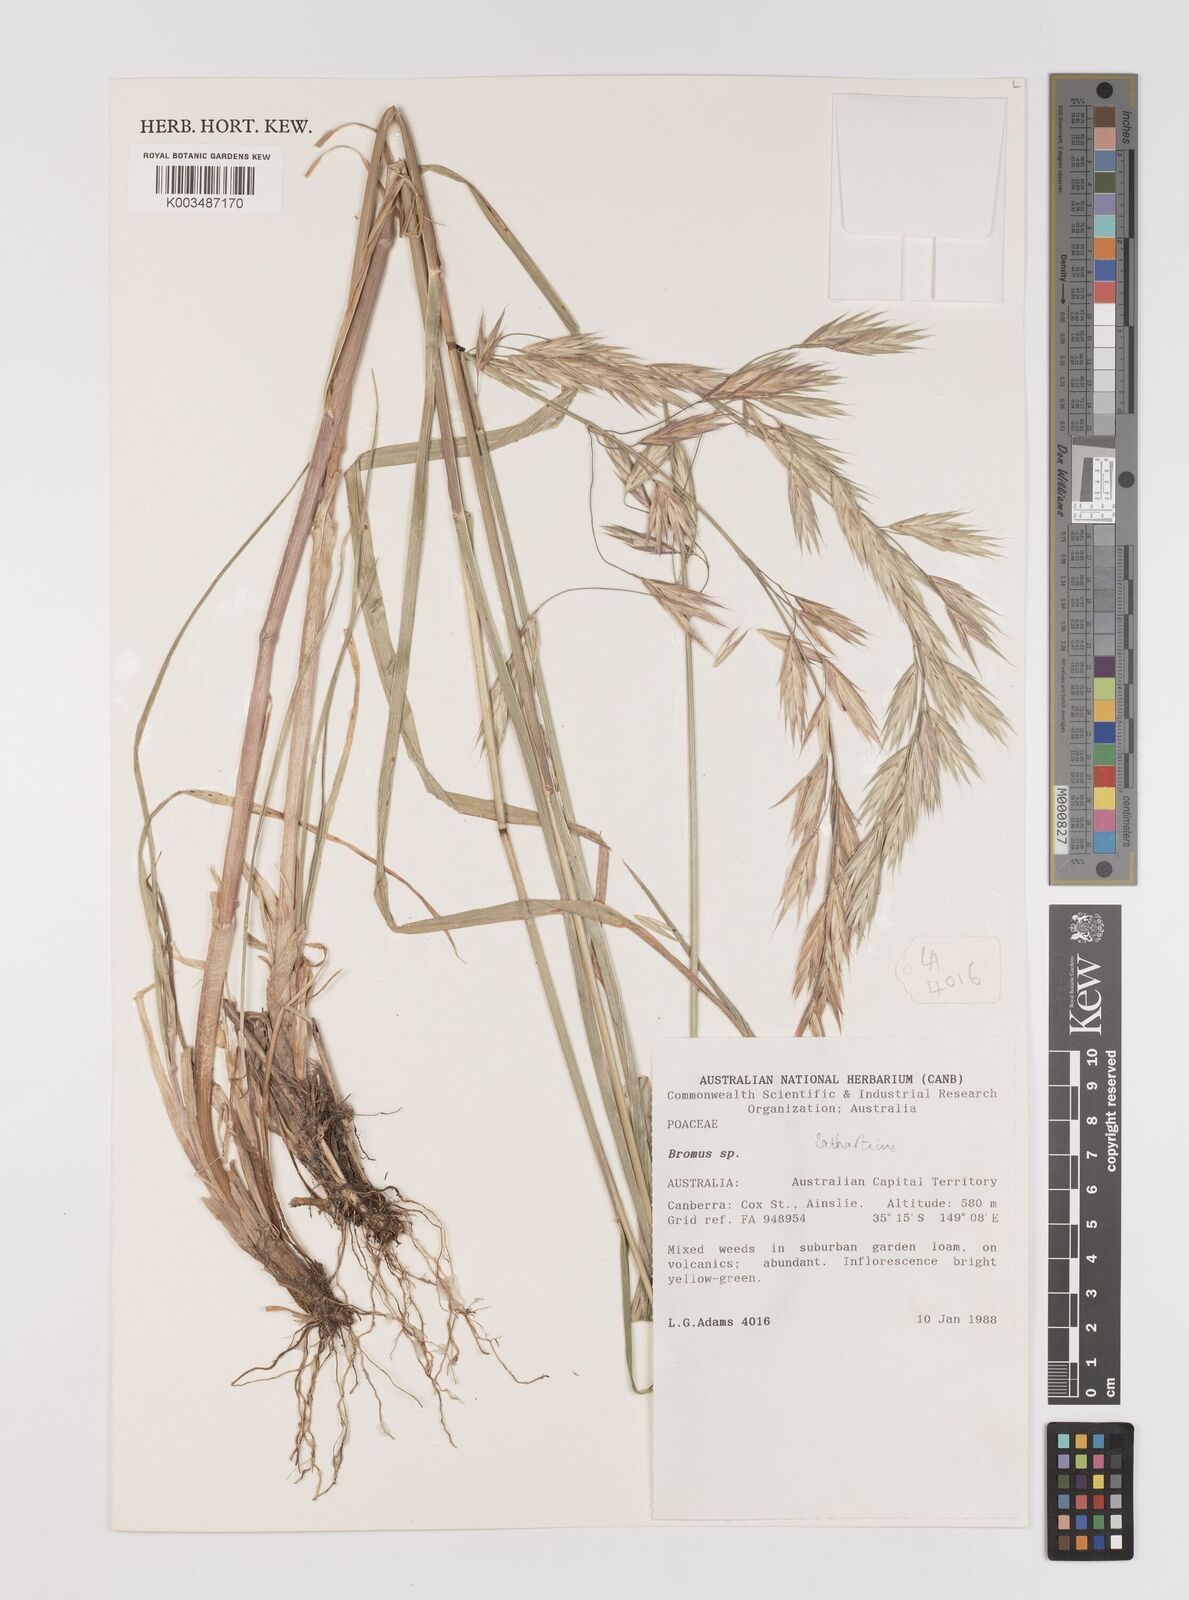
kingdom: Plantae
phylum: Tracheophyta
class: Liliopsida
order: Poales
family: Poaceae
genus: Bromus
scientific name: Bromus catharticus
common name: Rescuegrass
